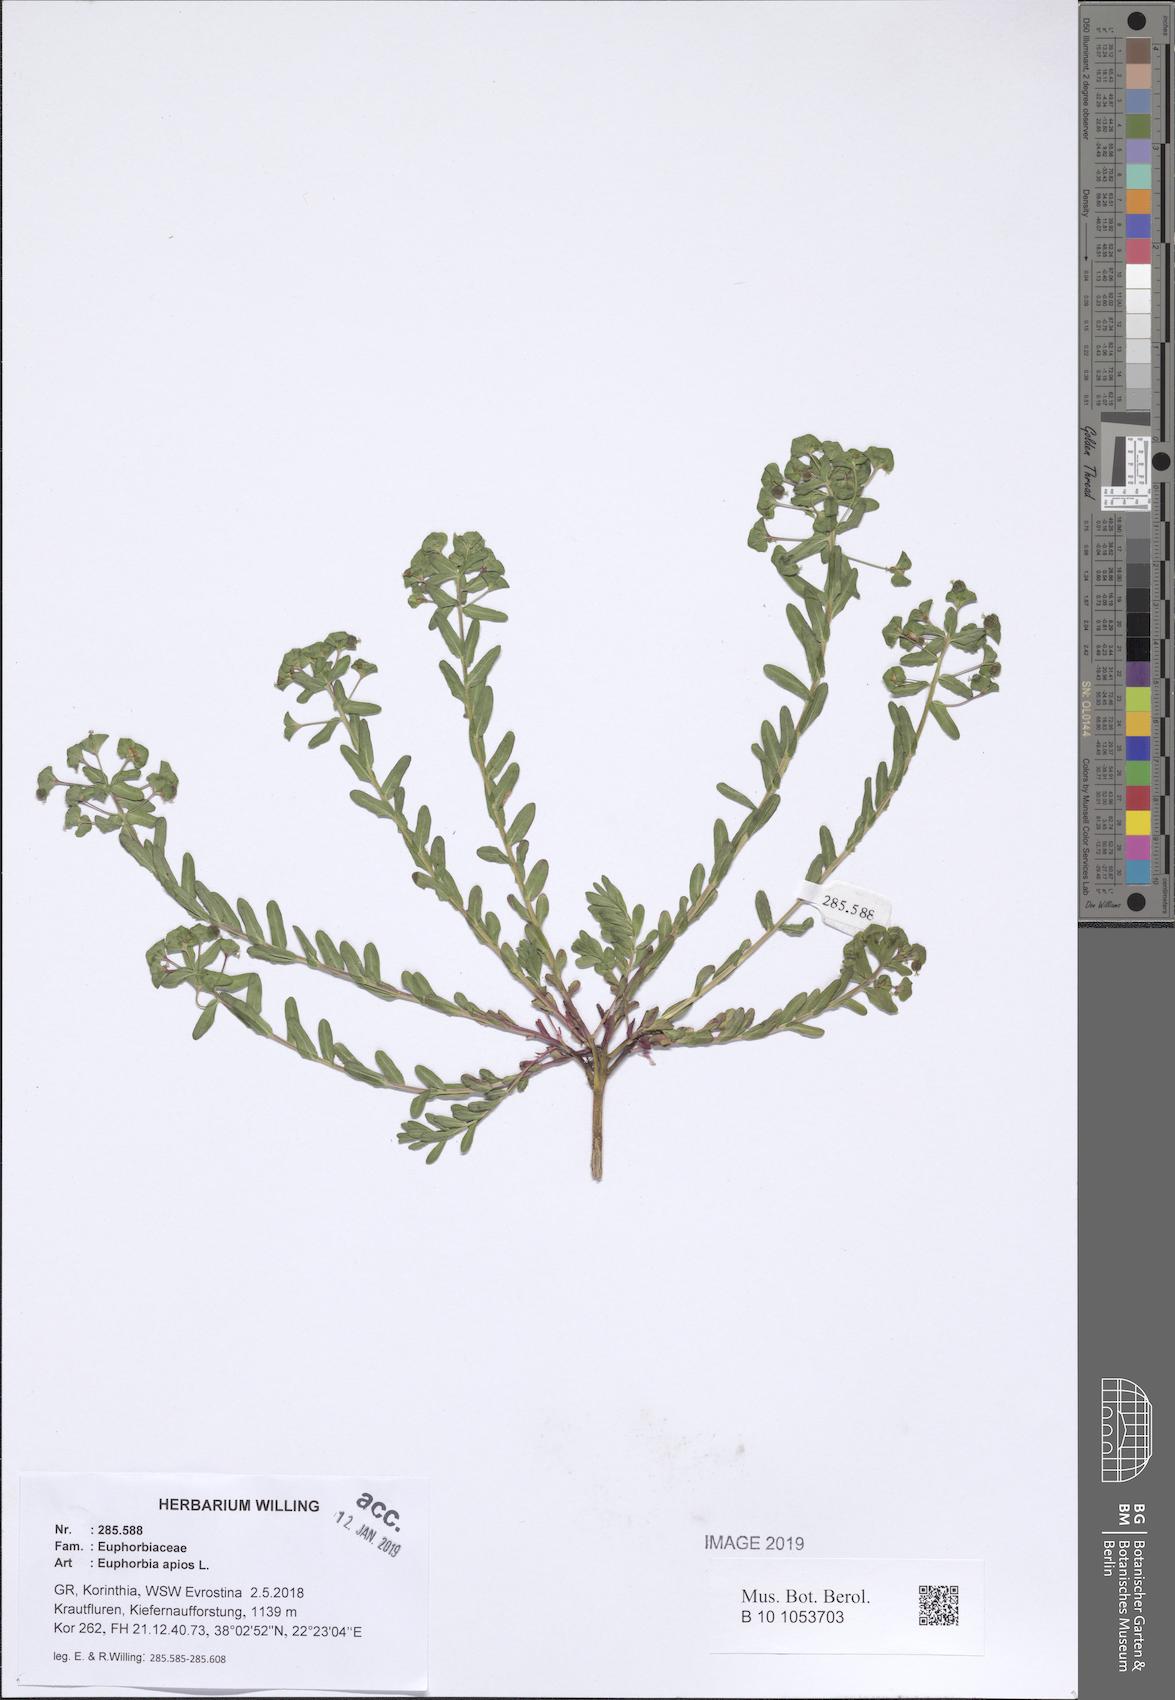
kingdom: Plantae
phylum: Tracheophyta
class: Magnoliopsida
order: Malpighiales
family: Euphorbiaceae
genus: Euphorbia
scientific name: Euphorbia apios
